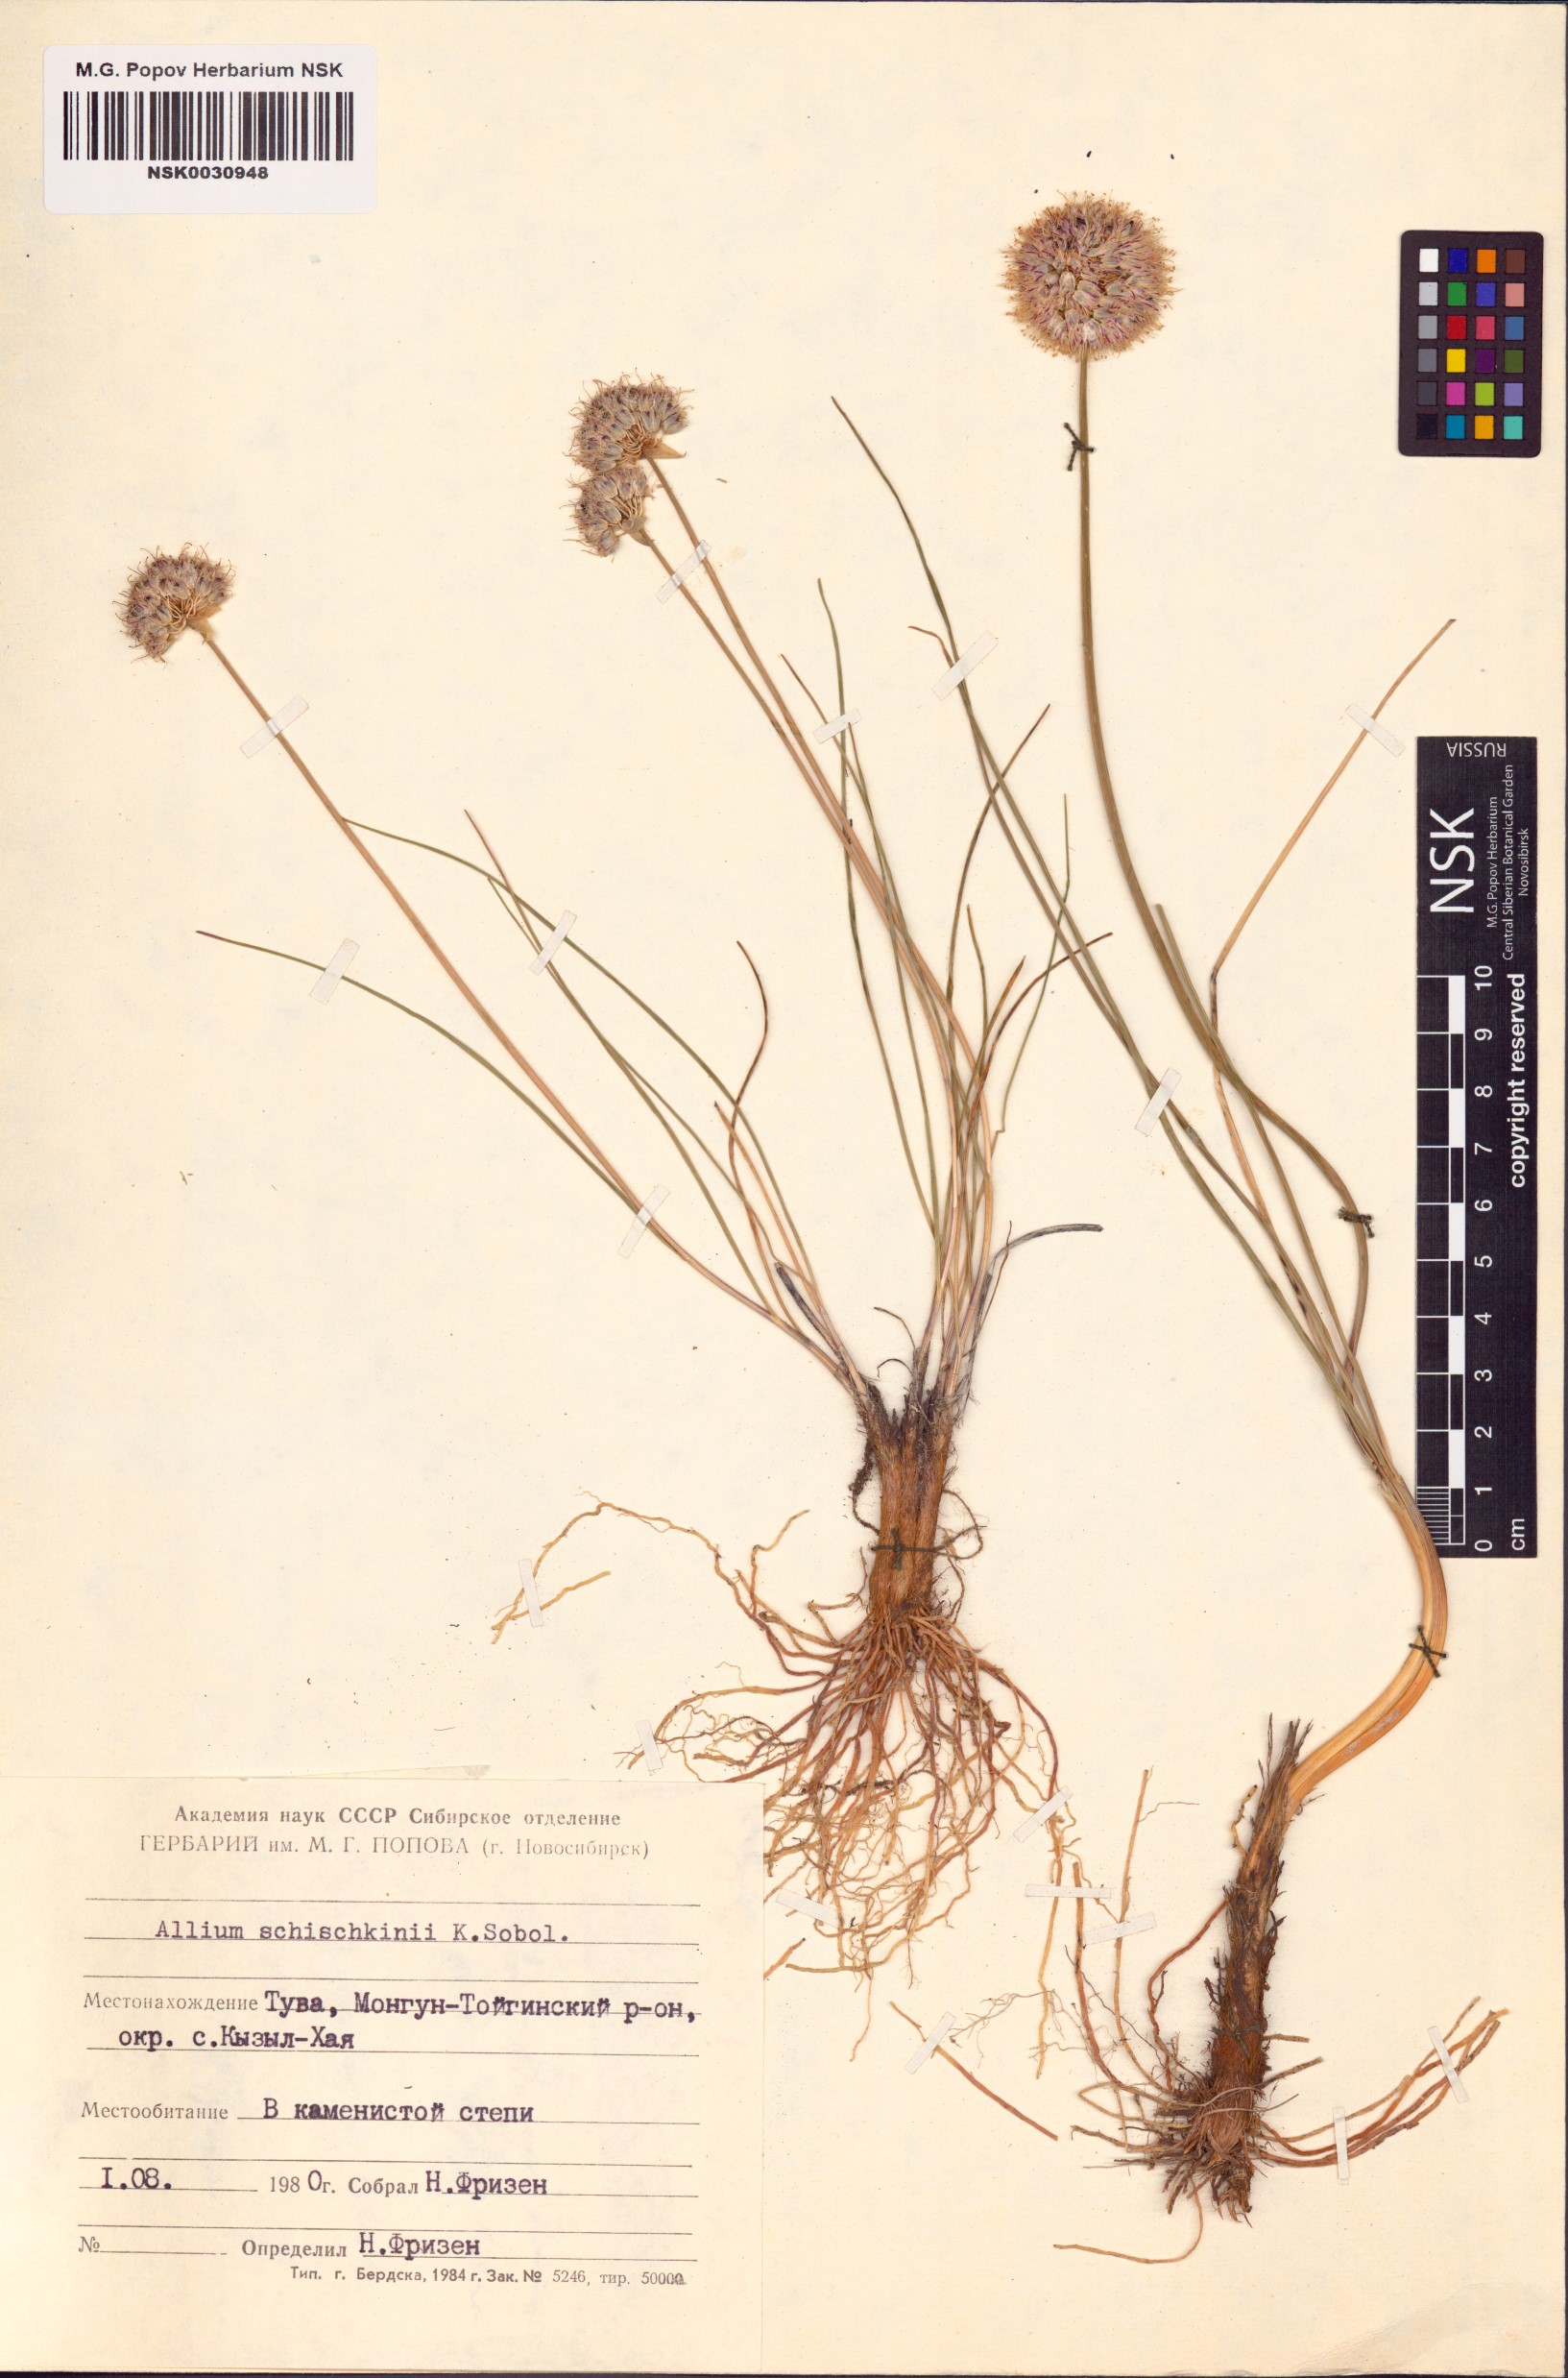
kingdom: Plantae
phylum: Tracheophyta
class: Liliopsida
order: Asparagales
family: Amaryllidaceae
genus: Allium
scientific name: Allium schischkinii
